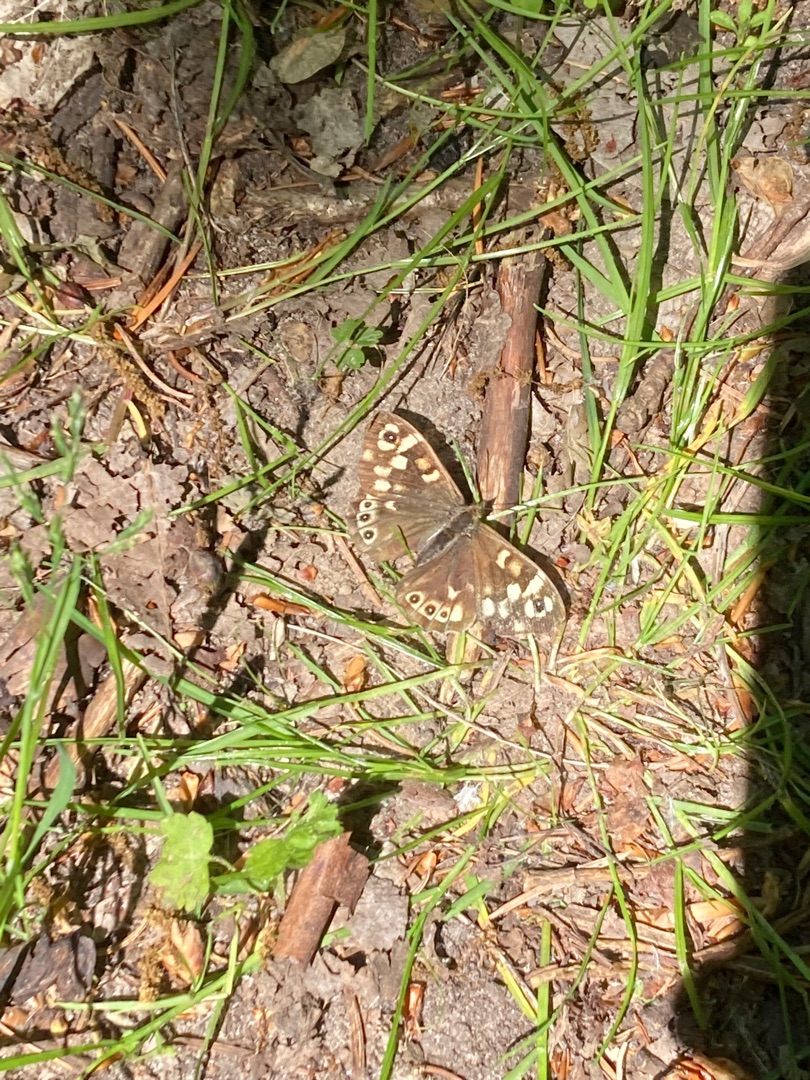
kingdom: Animalia
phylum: Arthropoda
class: Insecta
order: Lepidoptera
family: Nymphalidae
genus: Pararge
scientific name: Pararge aegeria
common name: Skovrandøje
